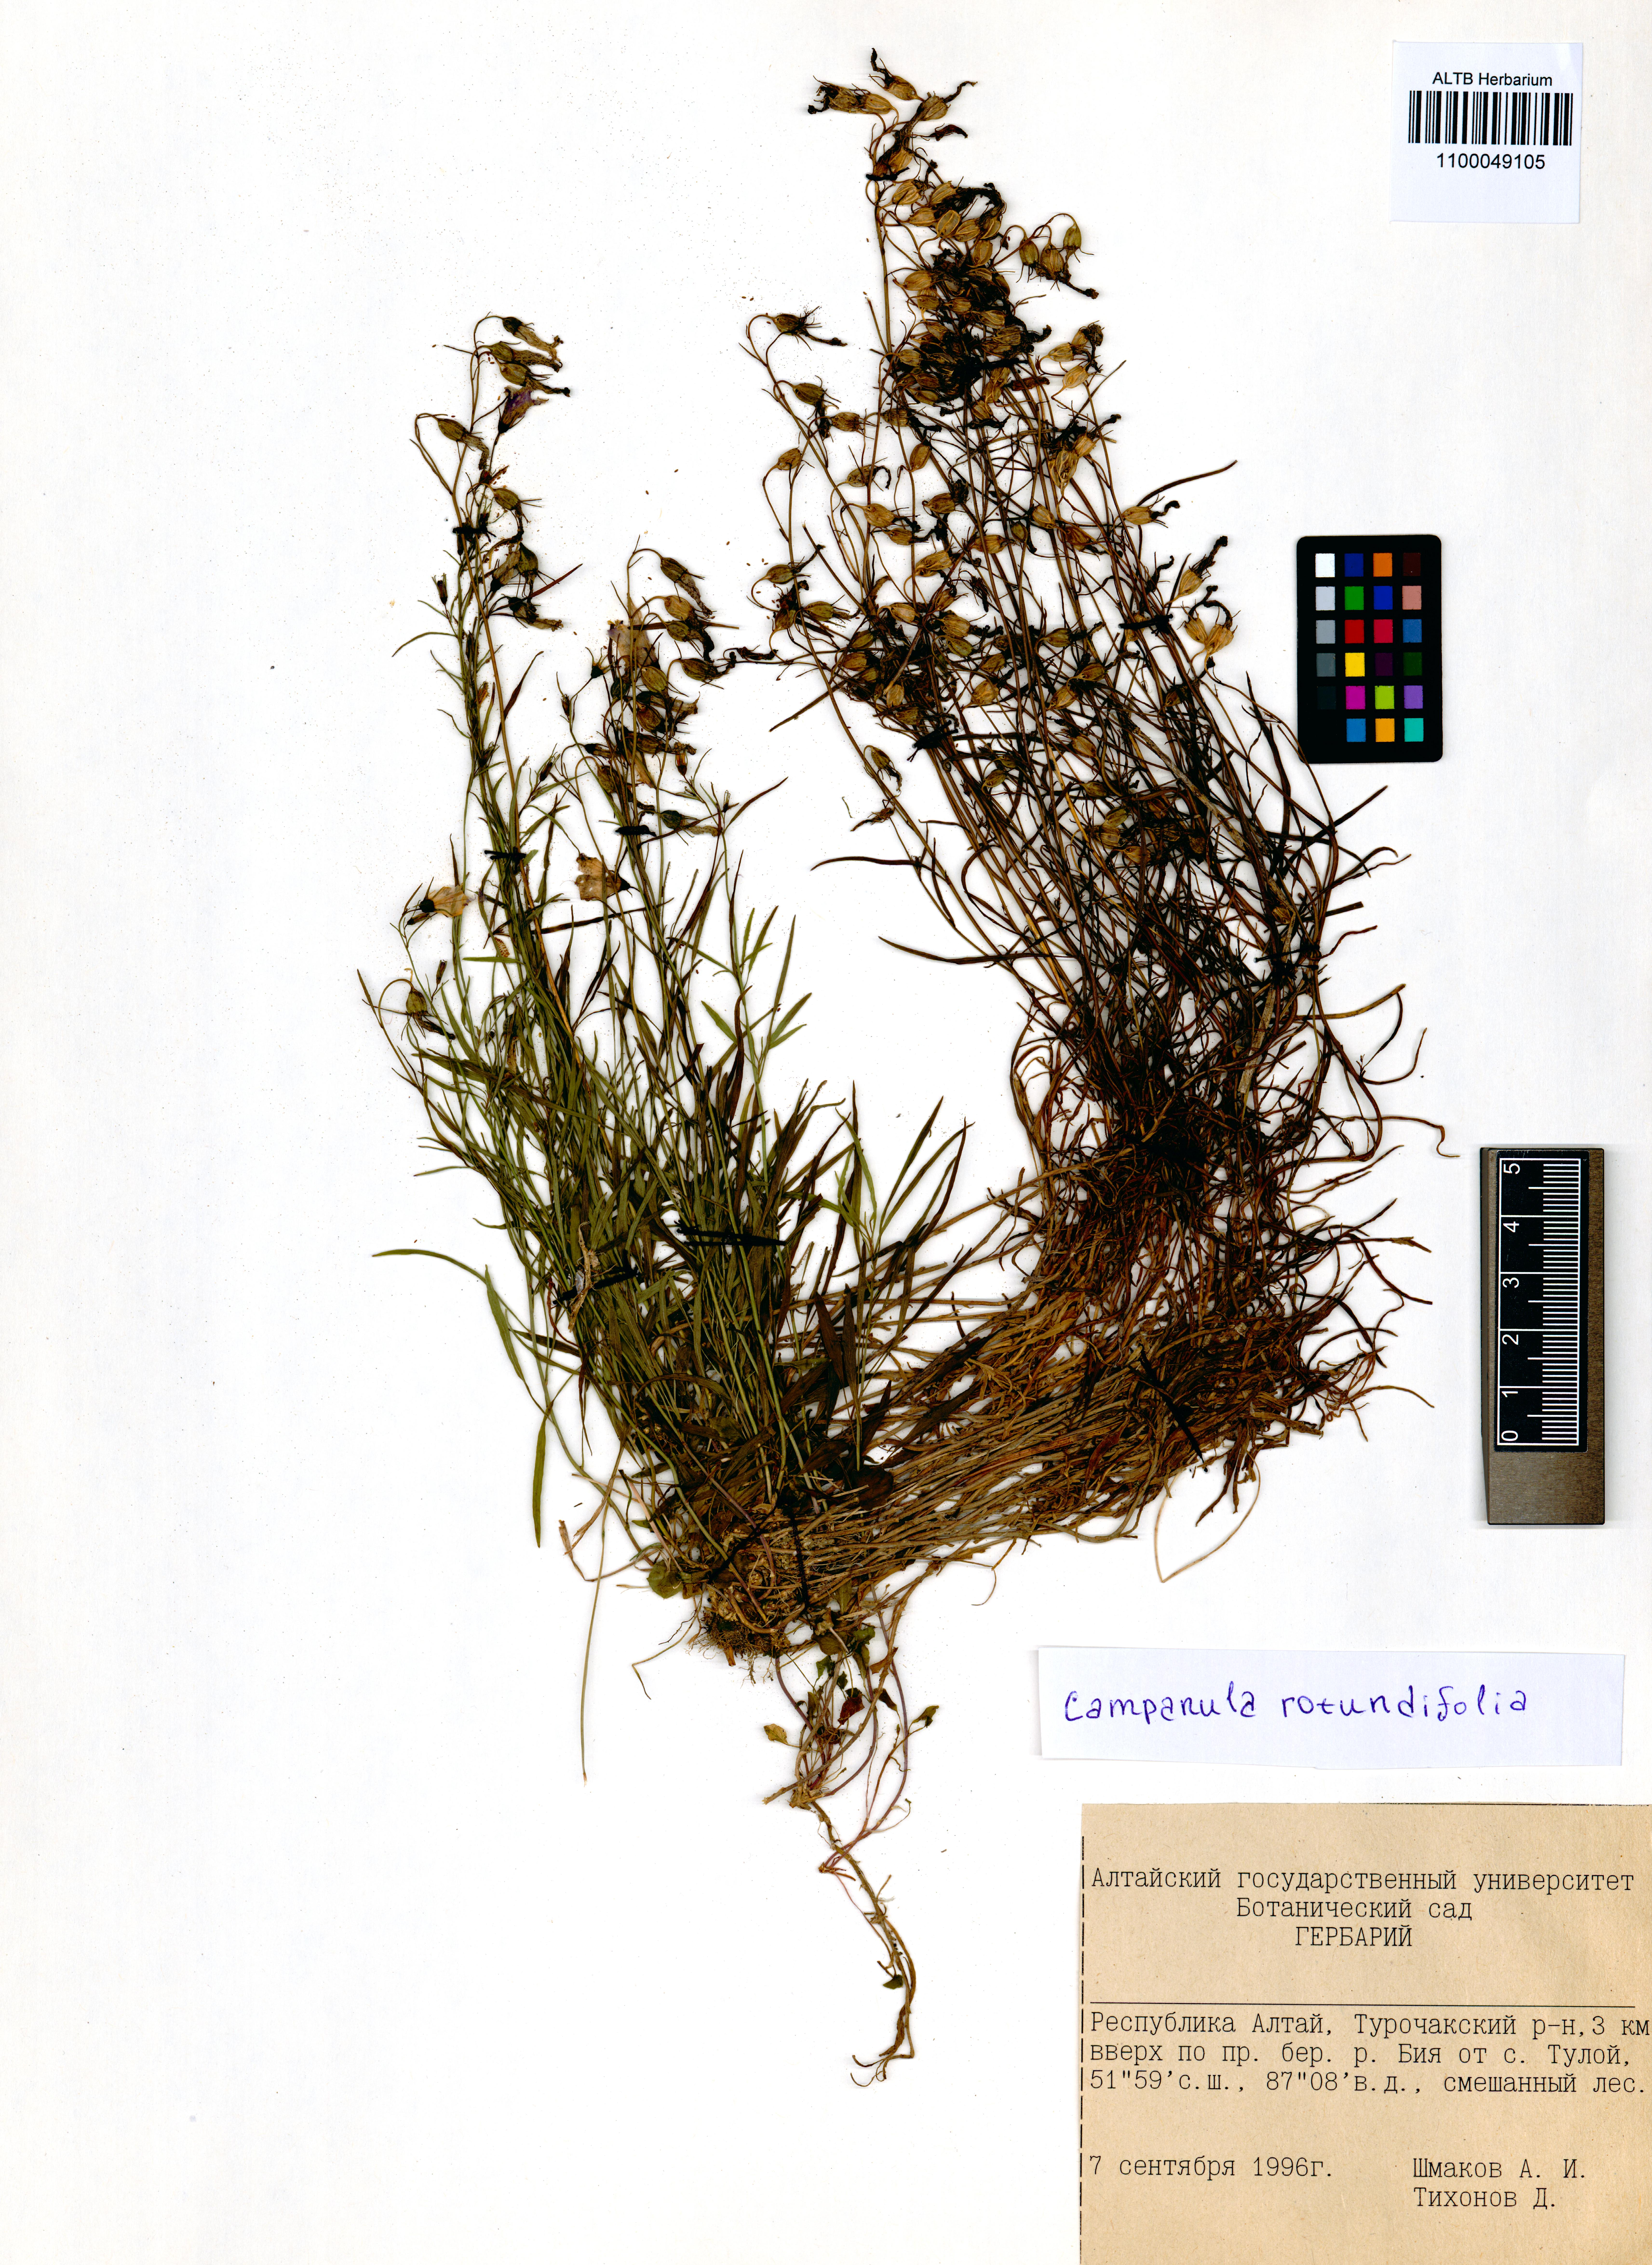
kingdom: Plantae
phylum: Tracheophyta
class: Magnoliopsida
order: Asterales
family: Campanulaceae
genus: Campanula
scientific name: Campanula rotundifolia
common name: Harebell
